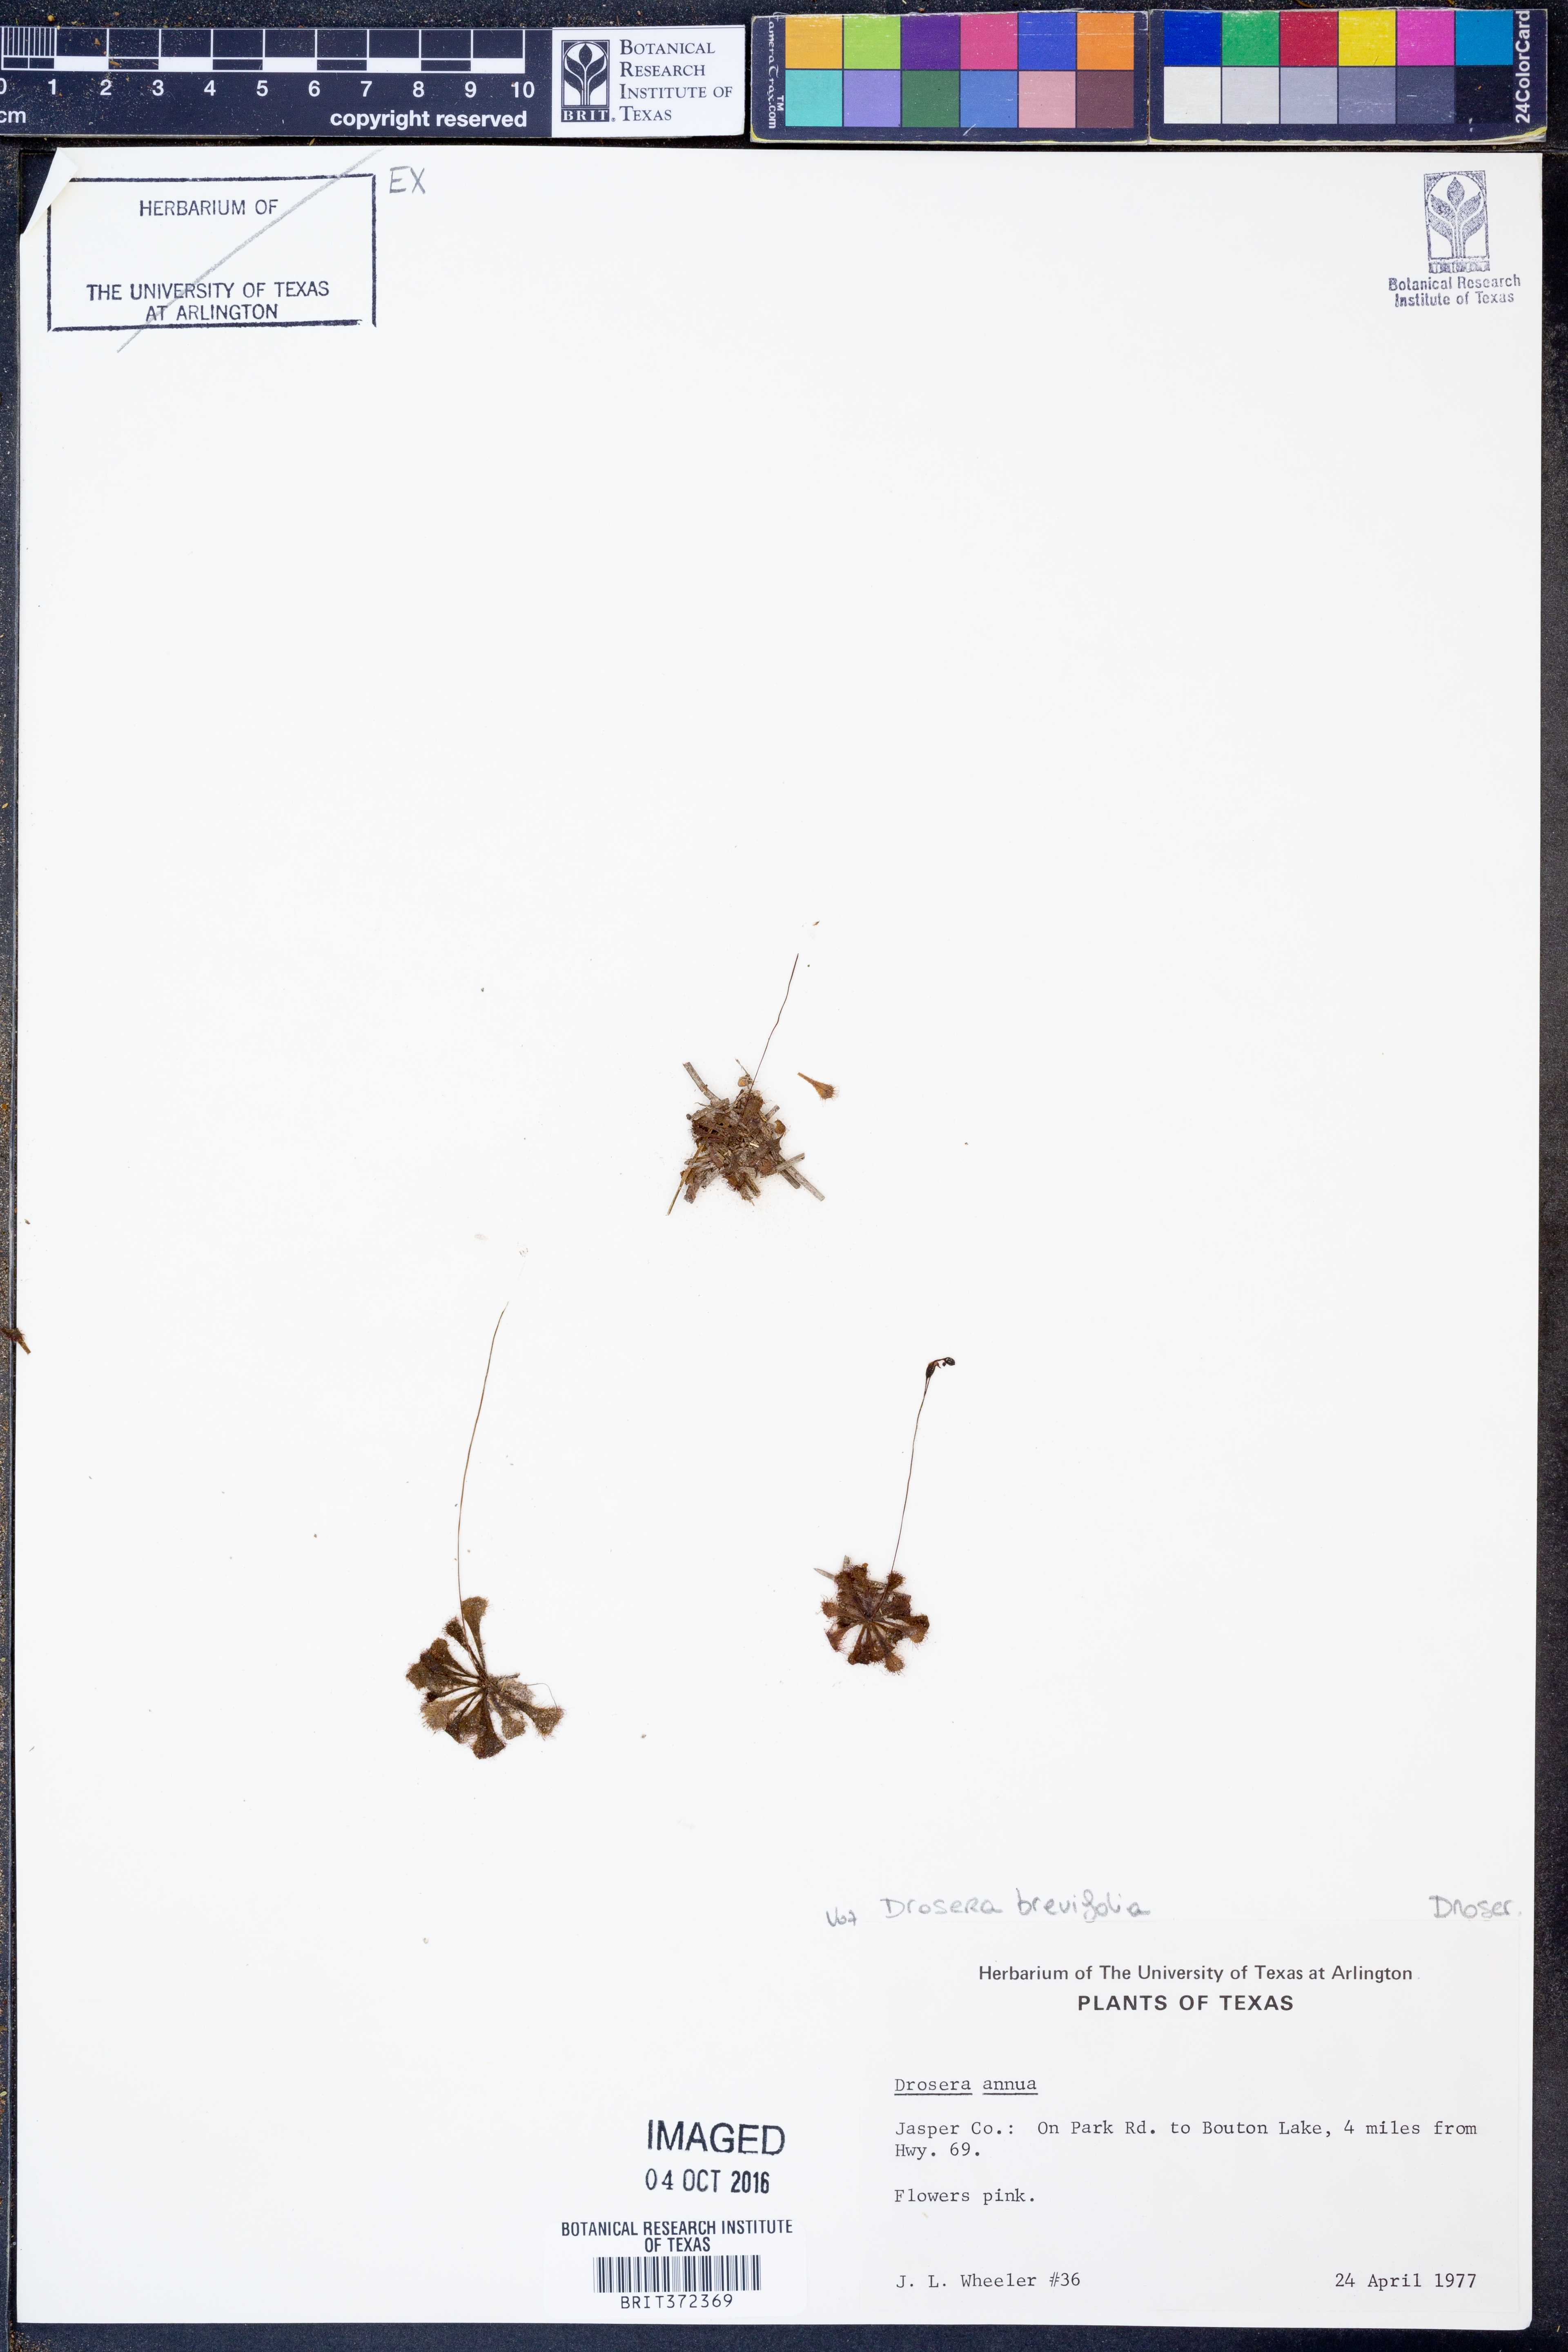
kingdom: Plantae
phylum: Tracheophyta
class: Magnoliopsida
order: Caryophyllales
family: Droseraceae
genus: Drosera
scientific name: Drosera brevifolia
